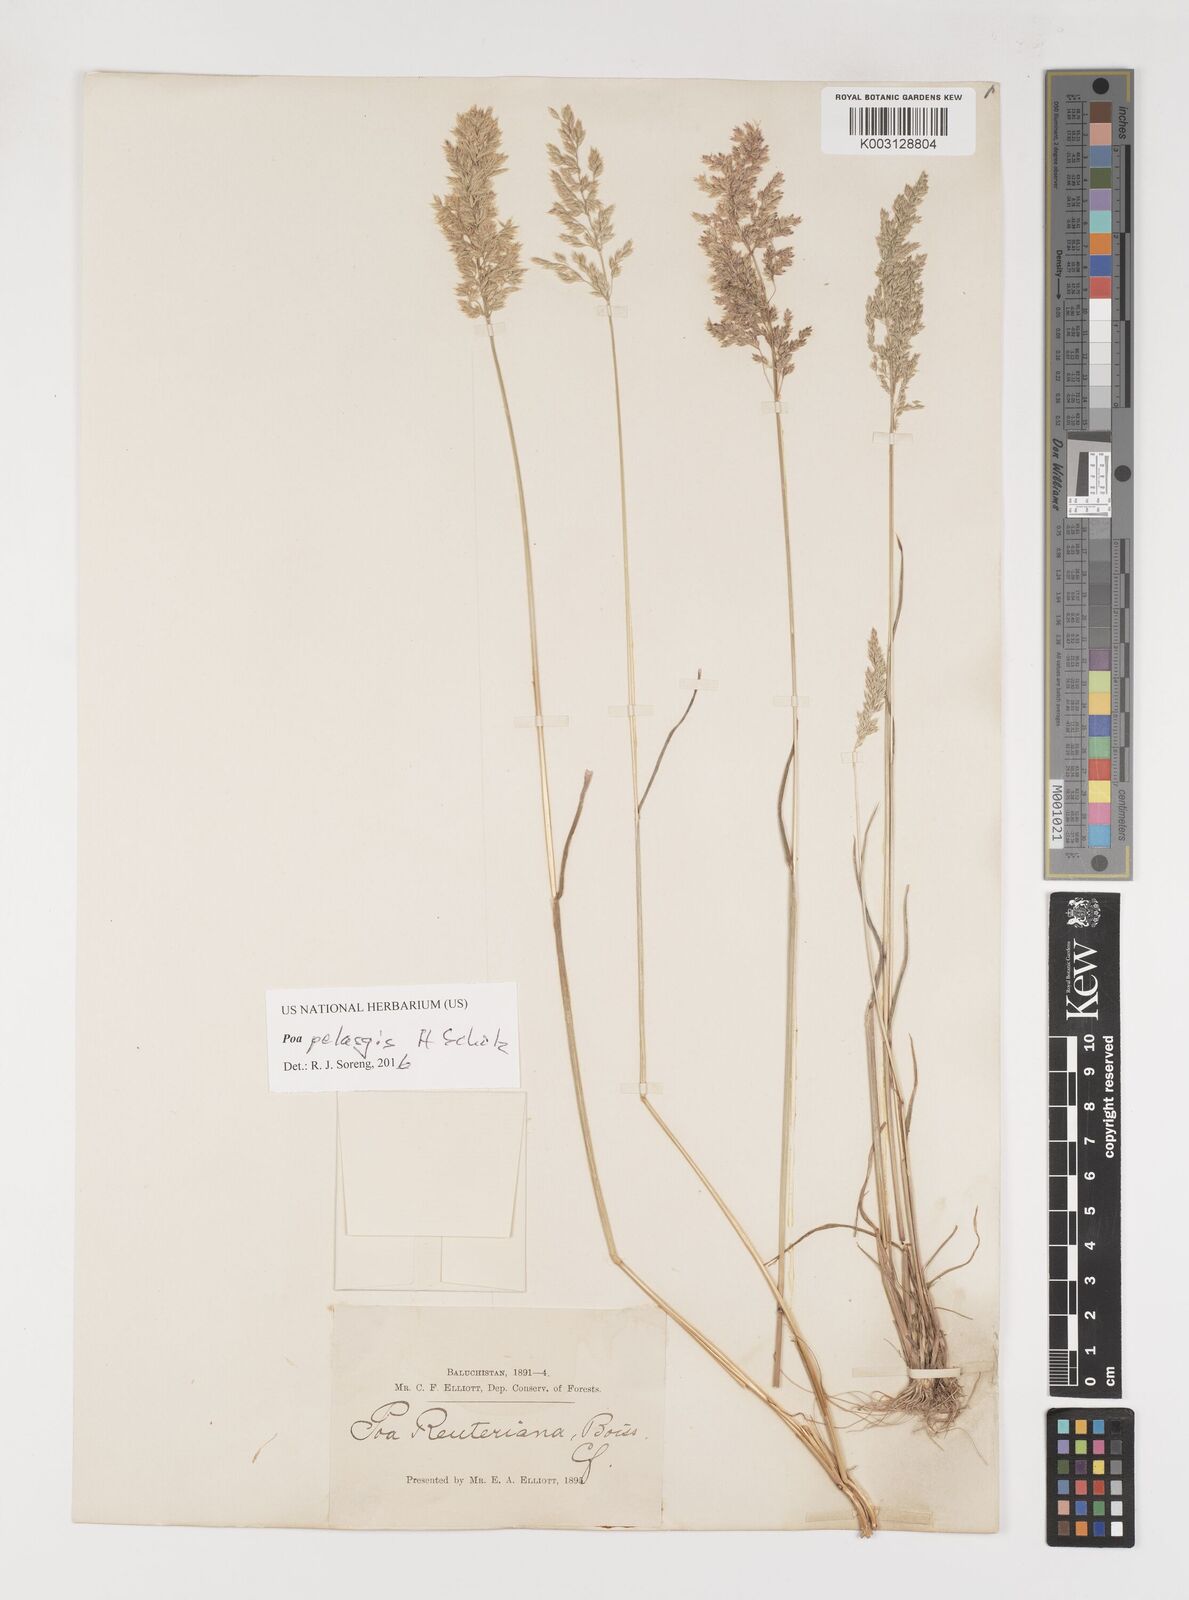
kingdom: Plantae
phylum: Tracheophyta
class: Liliopsida
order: Poales
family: Poaceae
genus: Poa
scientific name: Poa iconia
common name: Konya bluegrass
